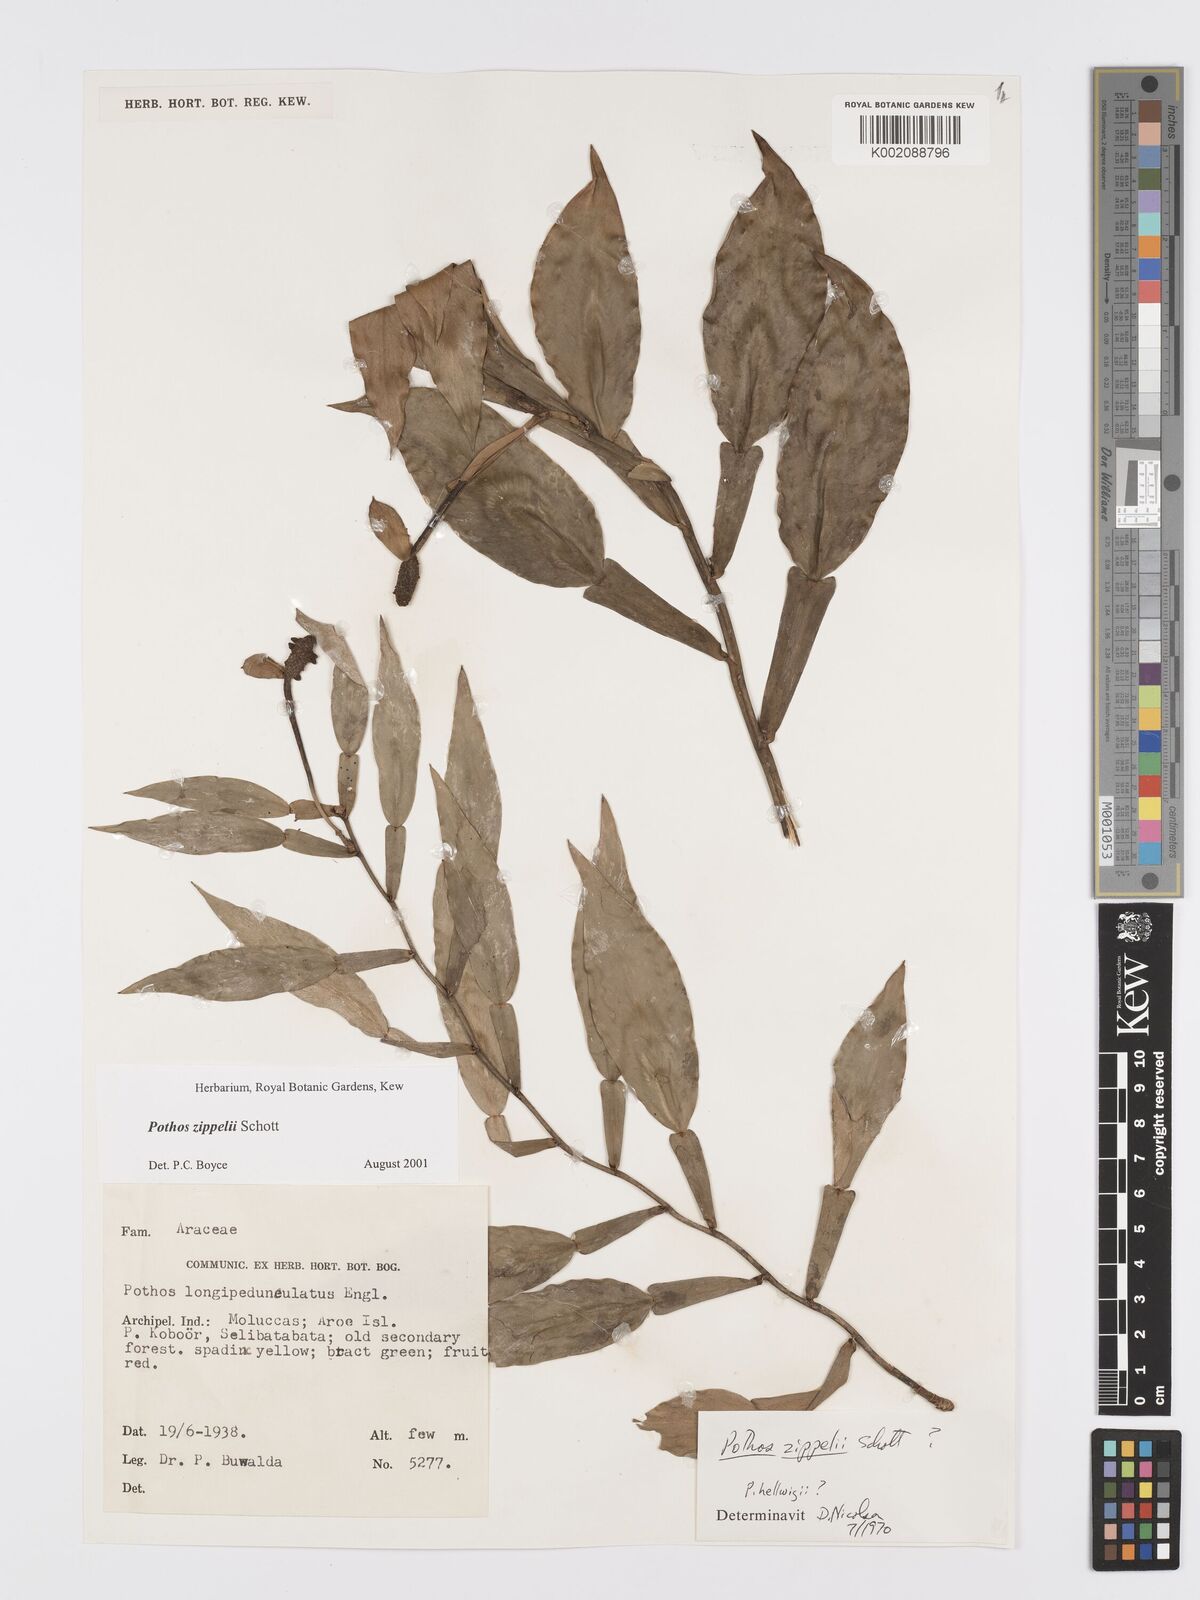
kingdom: Plantae
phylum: Tracheophyta
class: Liliopsida
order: Alismatales
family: Araceae
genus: Pothos
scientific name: Pothos zippelii
